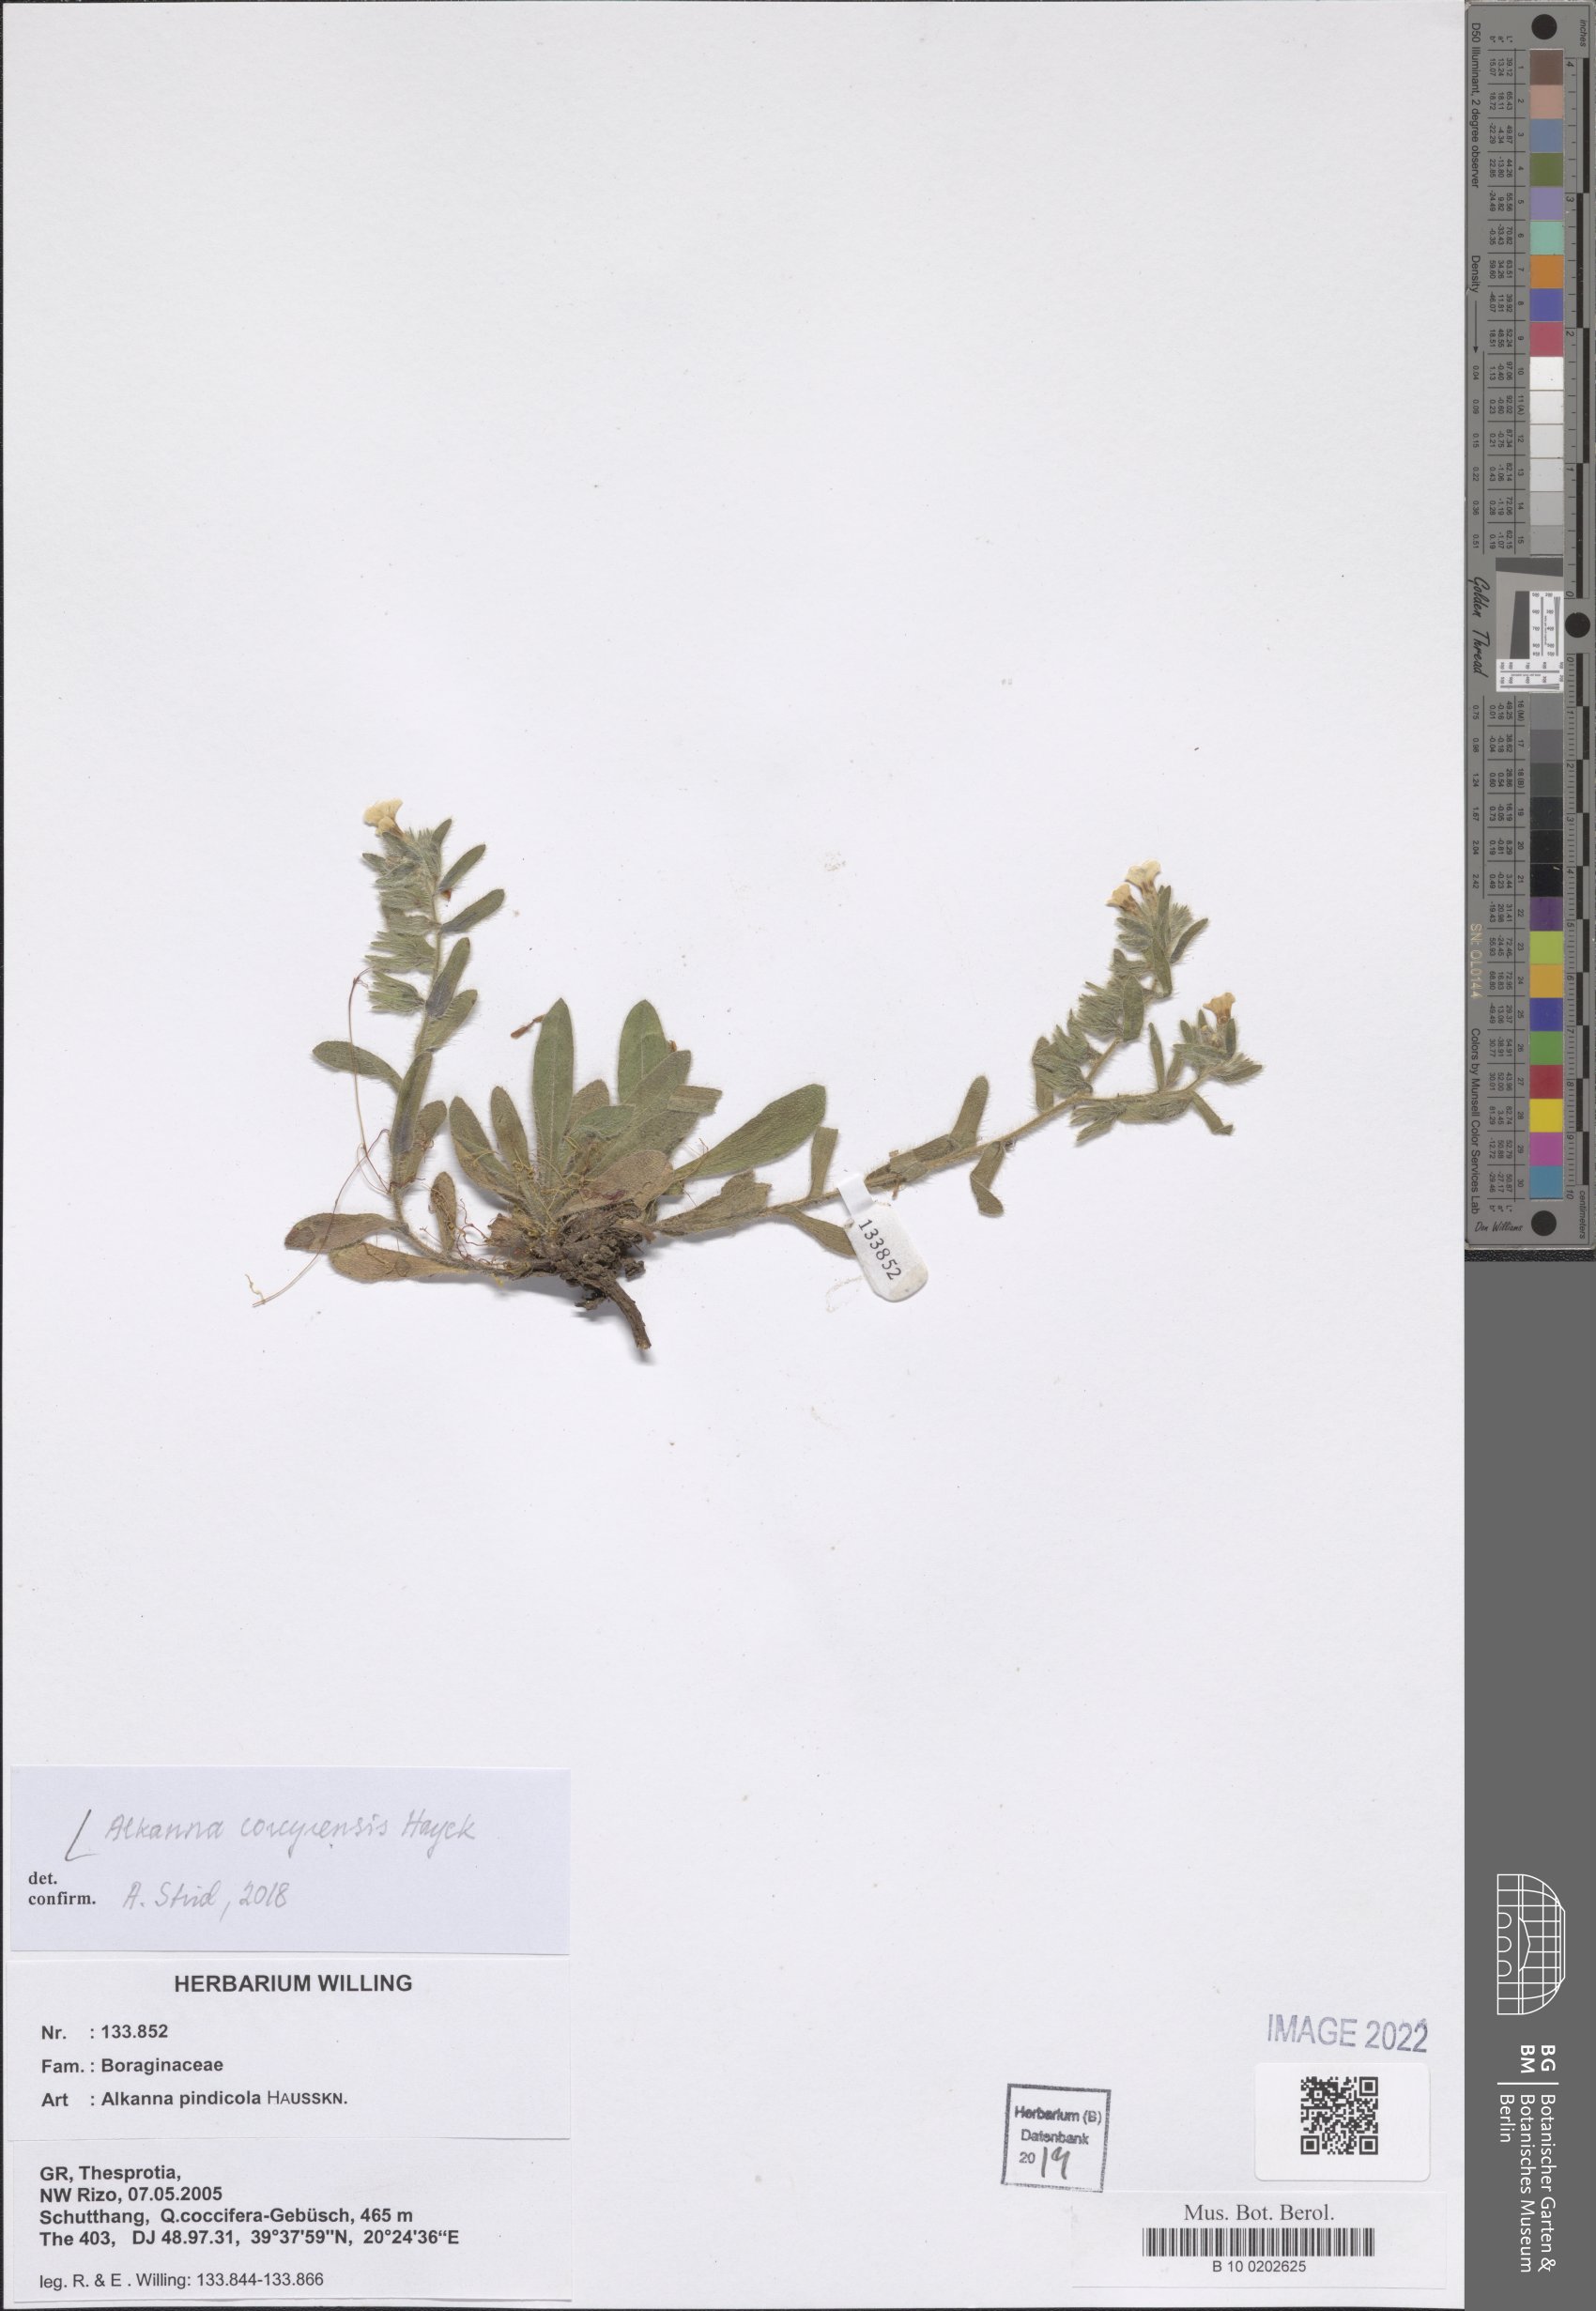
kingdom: Plantae
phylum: Tracheophyta
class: Magnoliopsida
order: Boraginales
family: Boraginaceae
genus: Alkanna
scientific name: Alkanna corcyrensis
